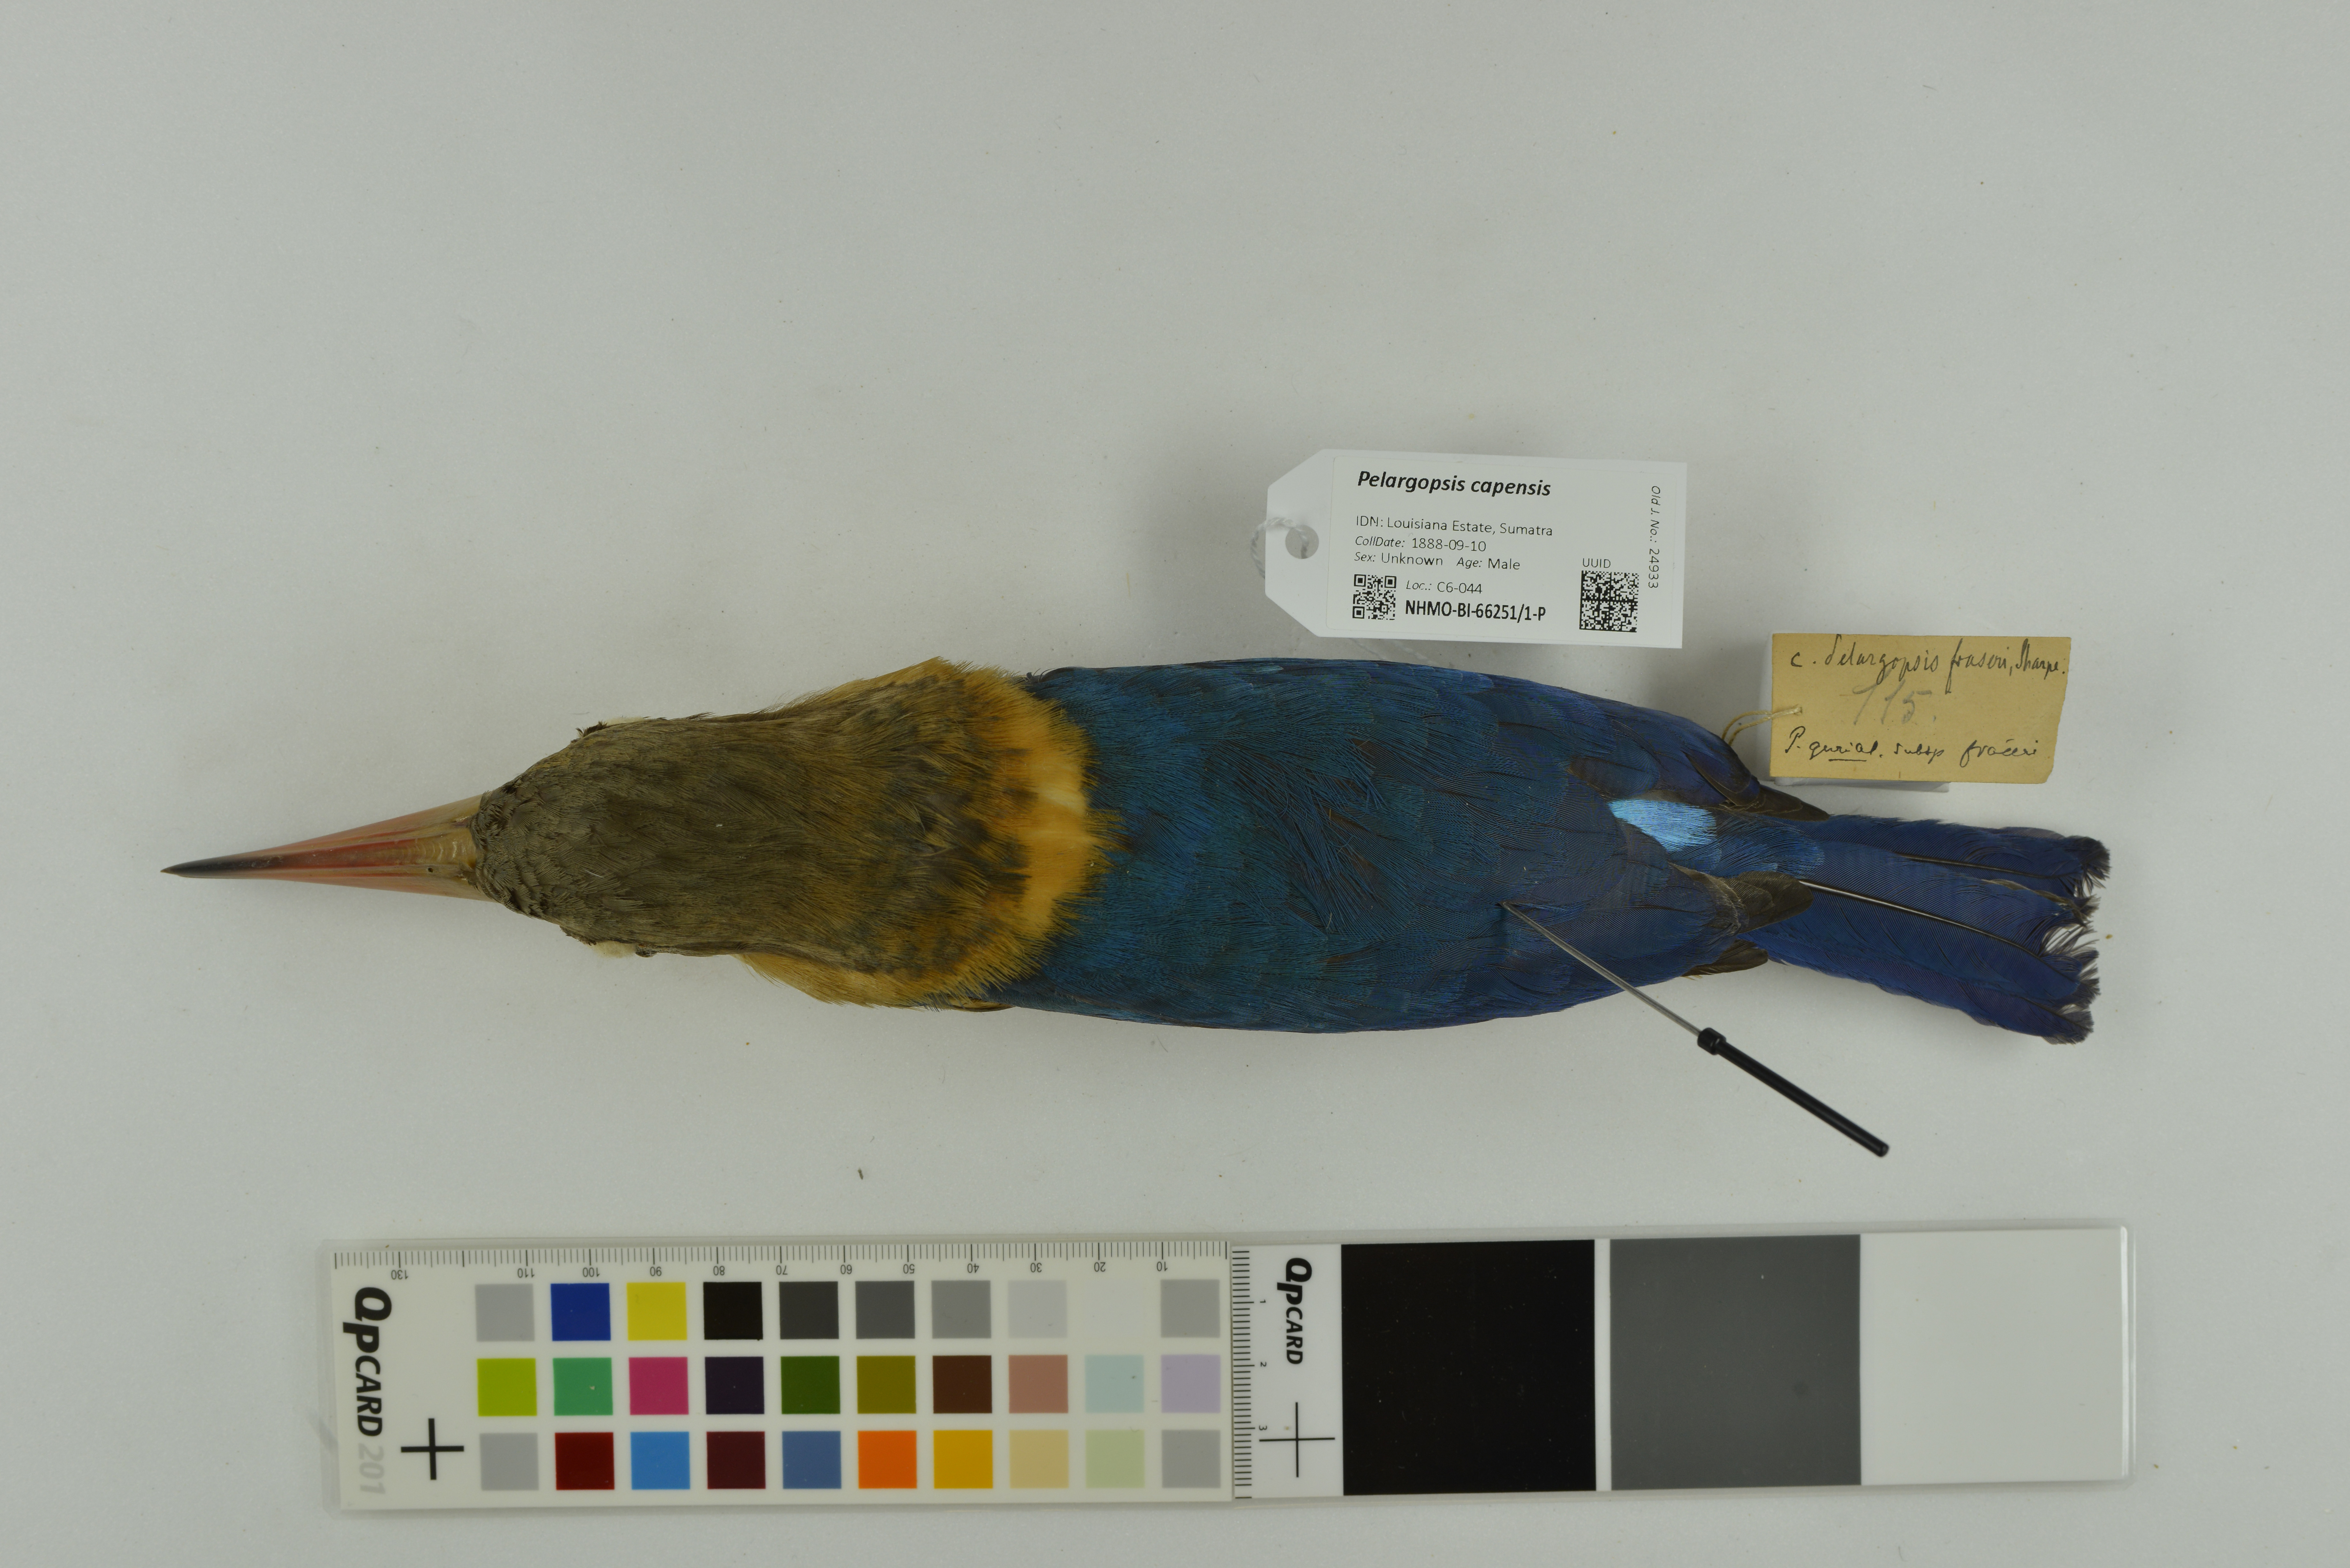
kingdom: Animalia
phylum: Chordata
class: Aves
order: Coraciiformes
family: Alcedinidae
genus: Pelargopsis
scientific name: Pelargopsis capensis
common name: Stork-billed kingfisher
